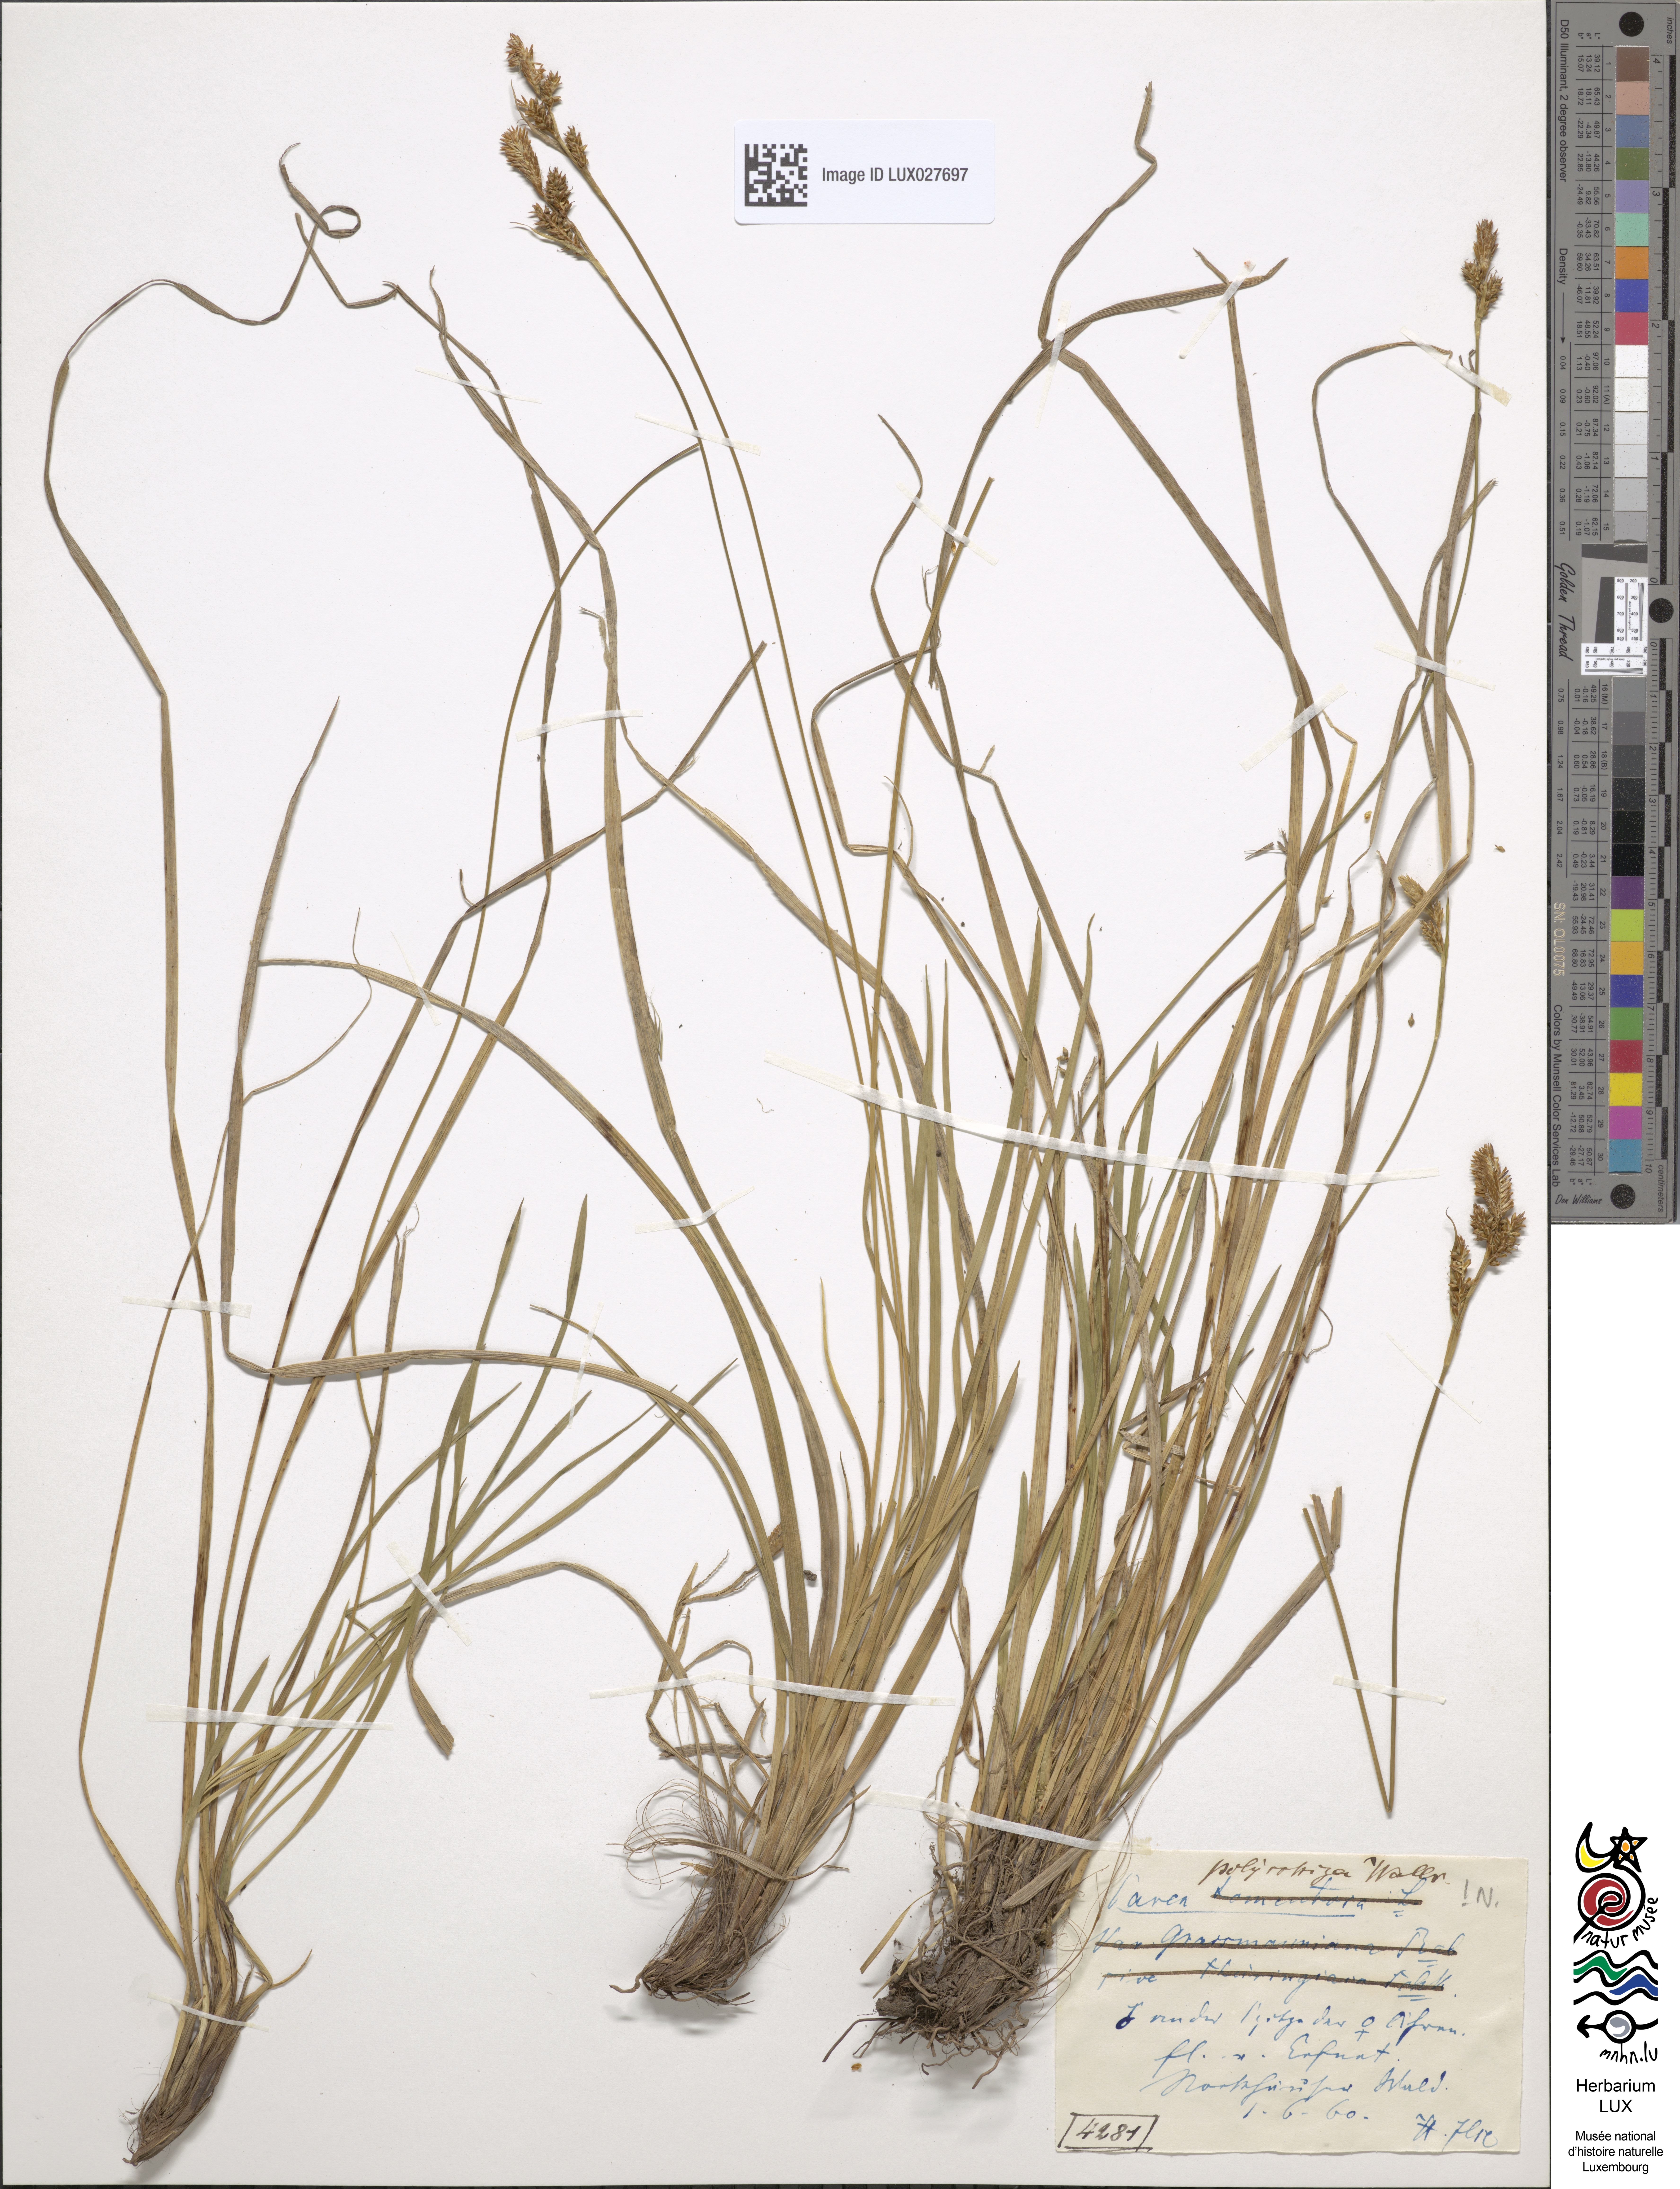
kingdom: Plantae
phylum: Tracheophyta
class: Liliopsida
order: Poales
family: Cyperaceae
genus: Carex
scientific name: Carex umbrosa
